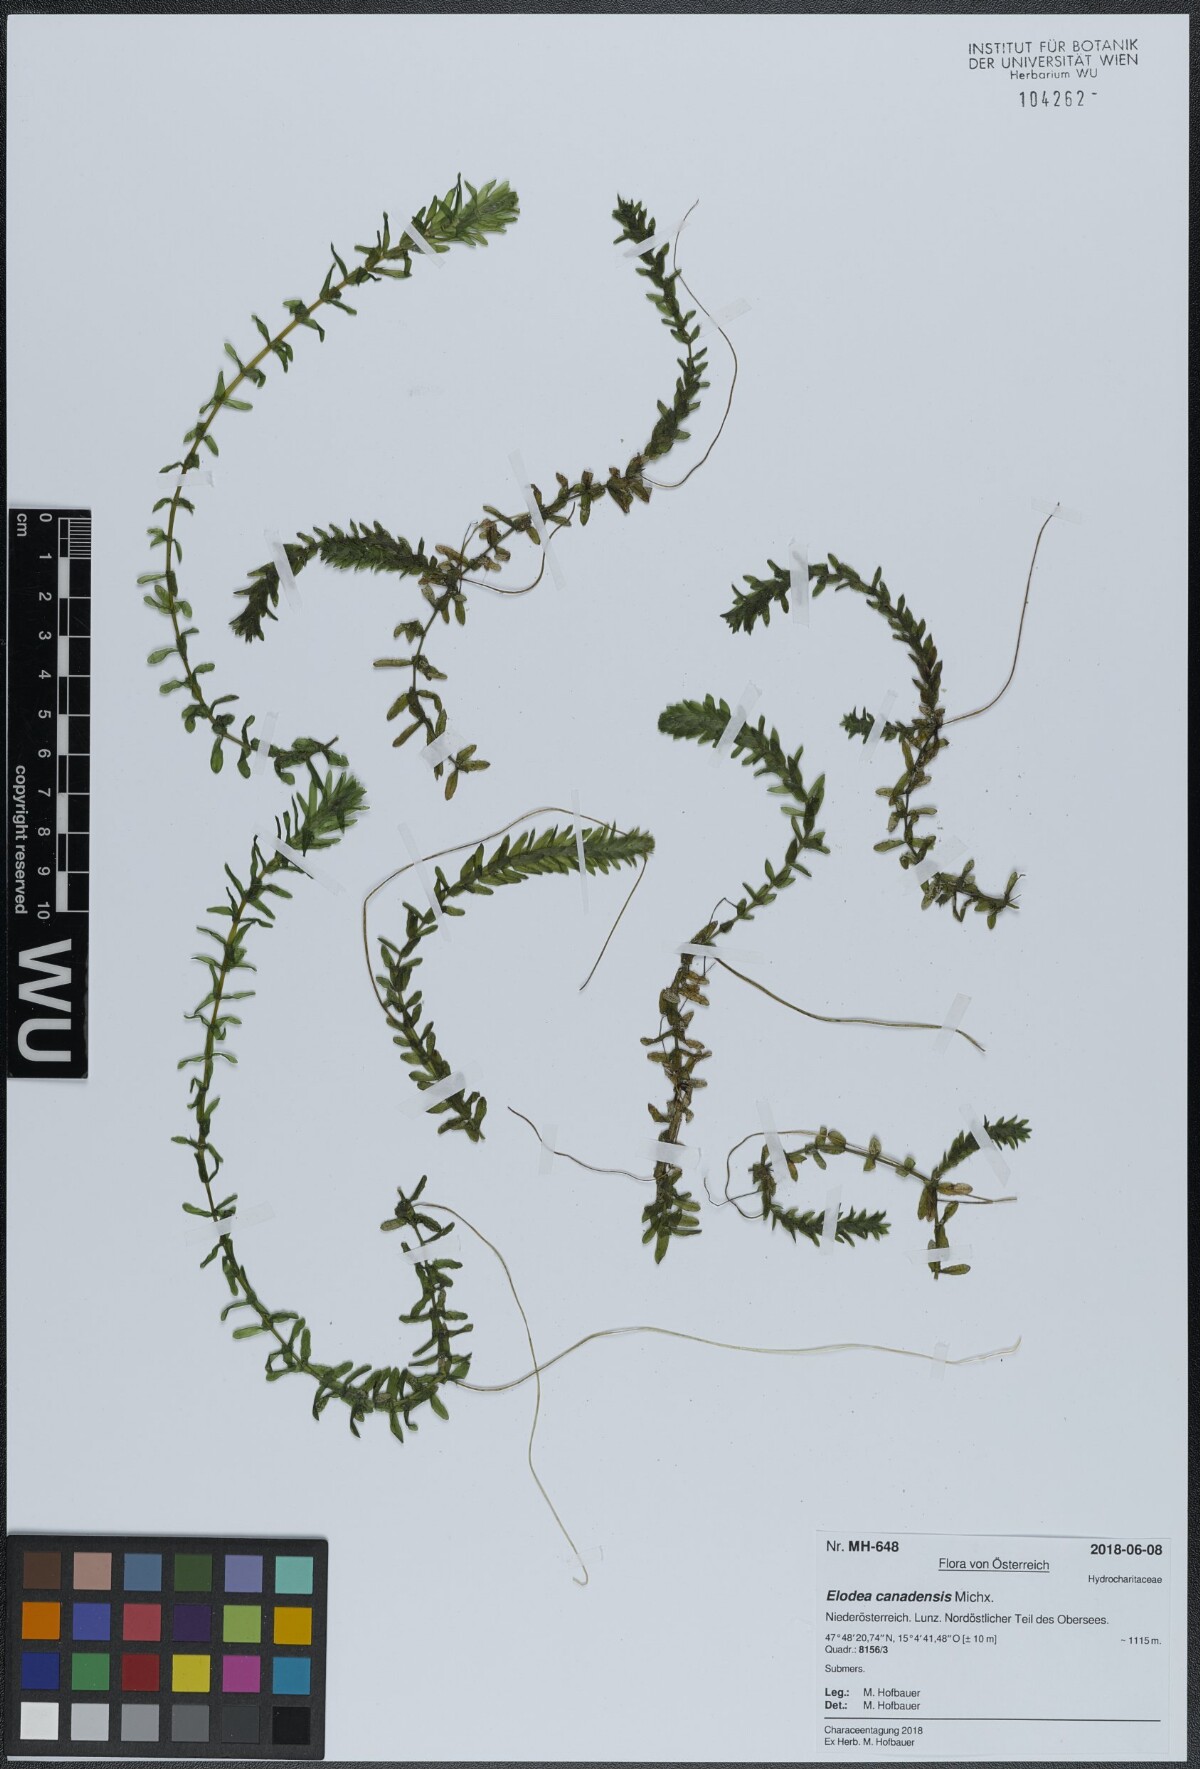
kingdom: Plantae
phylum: Tracheophyta
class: Liliopsida
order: Alismatales
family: Hydrocharitaceae
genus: Elodea
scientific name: Elodea canadensis
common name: Canadian waterweed
